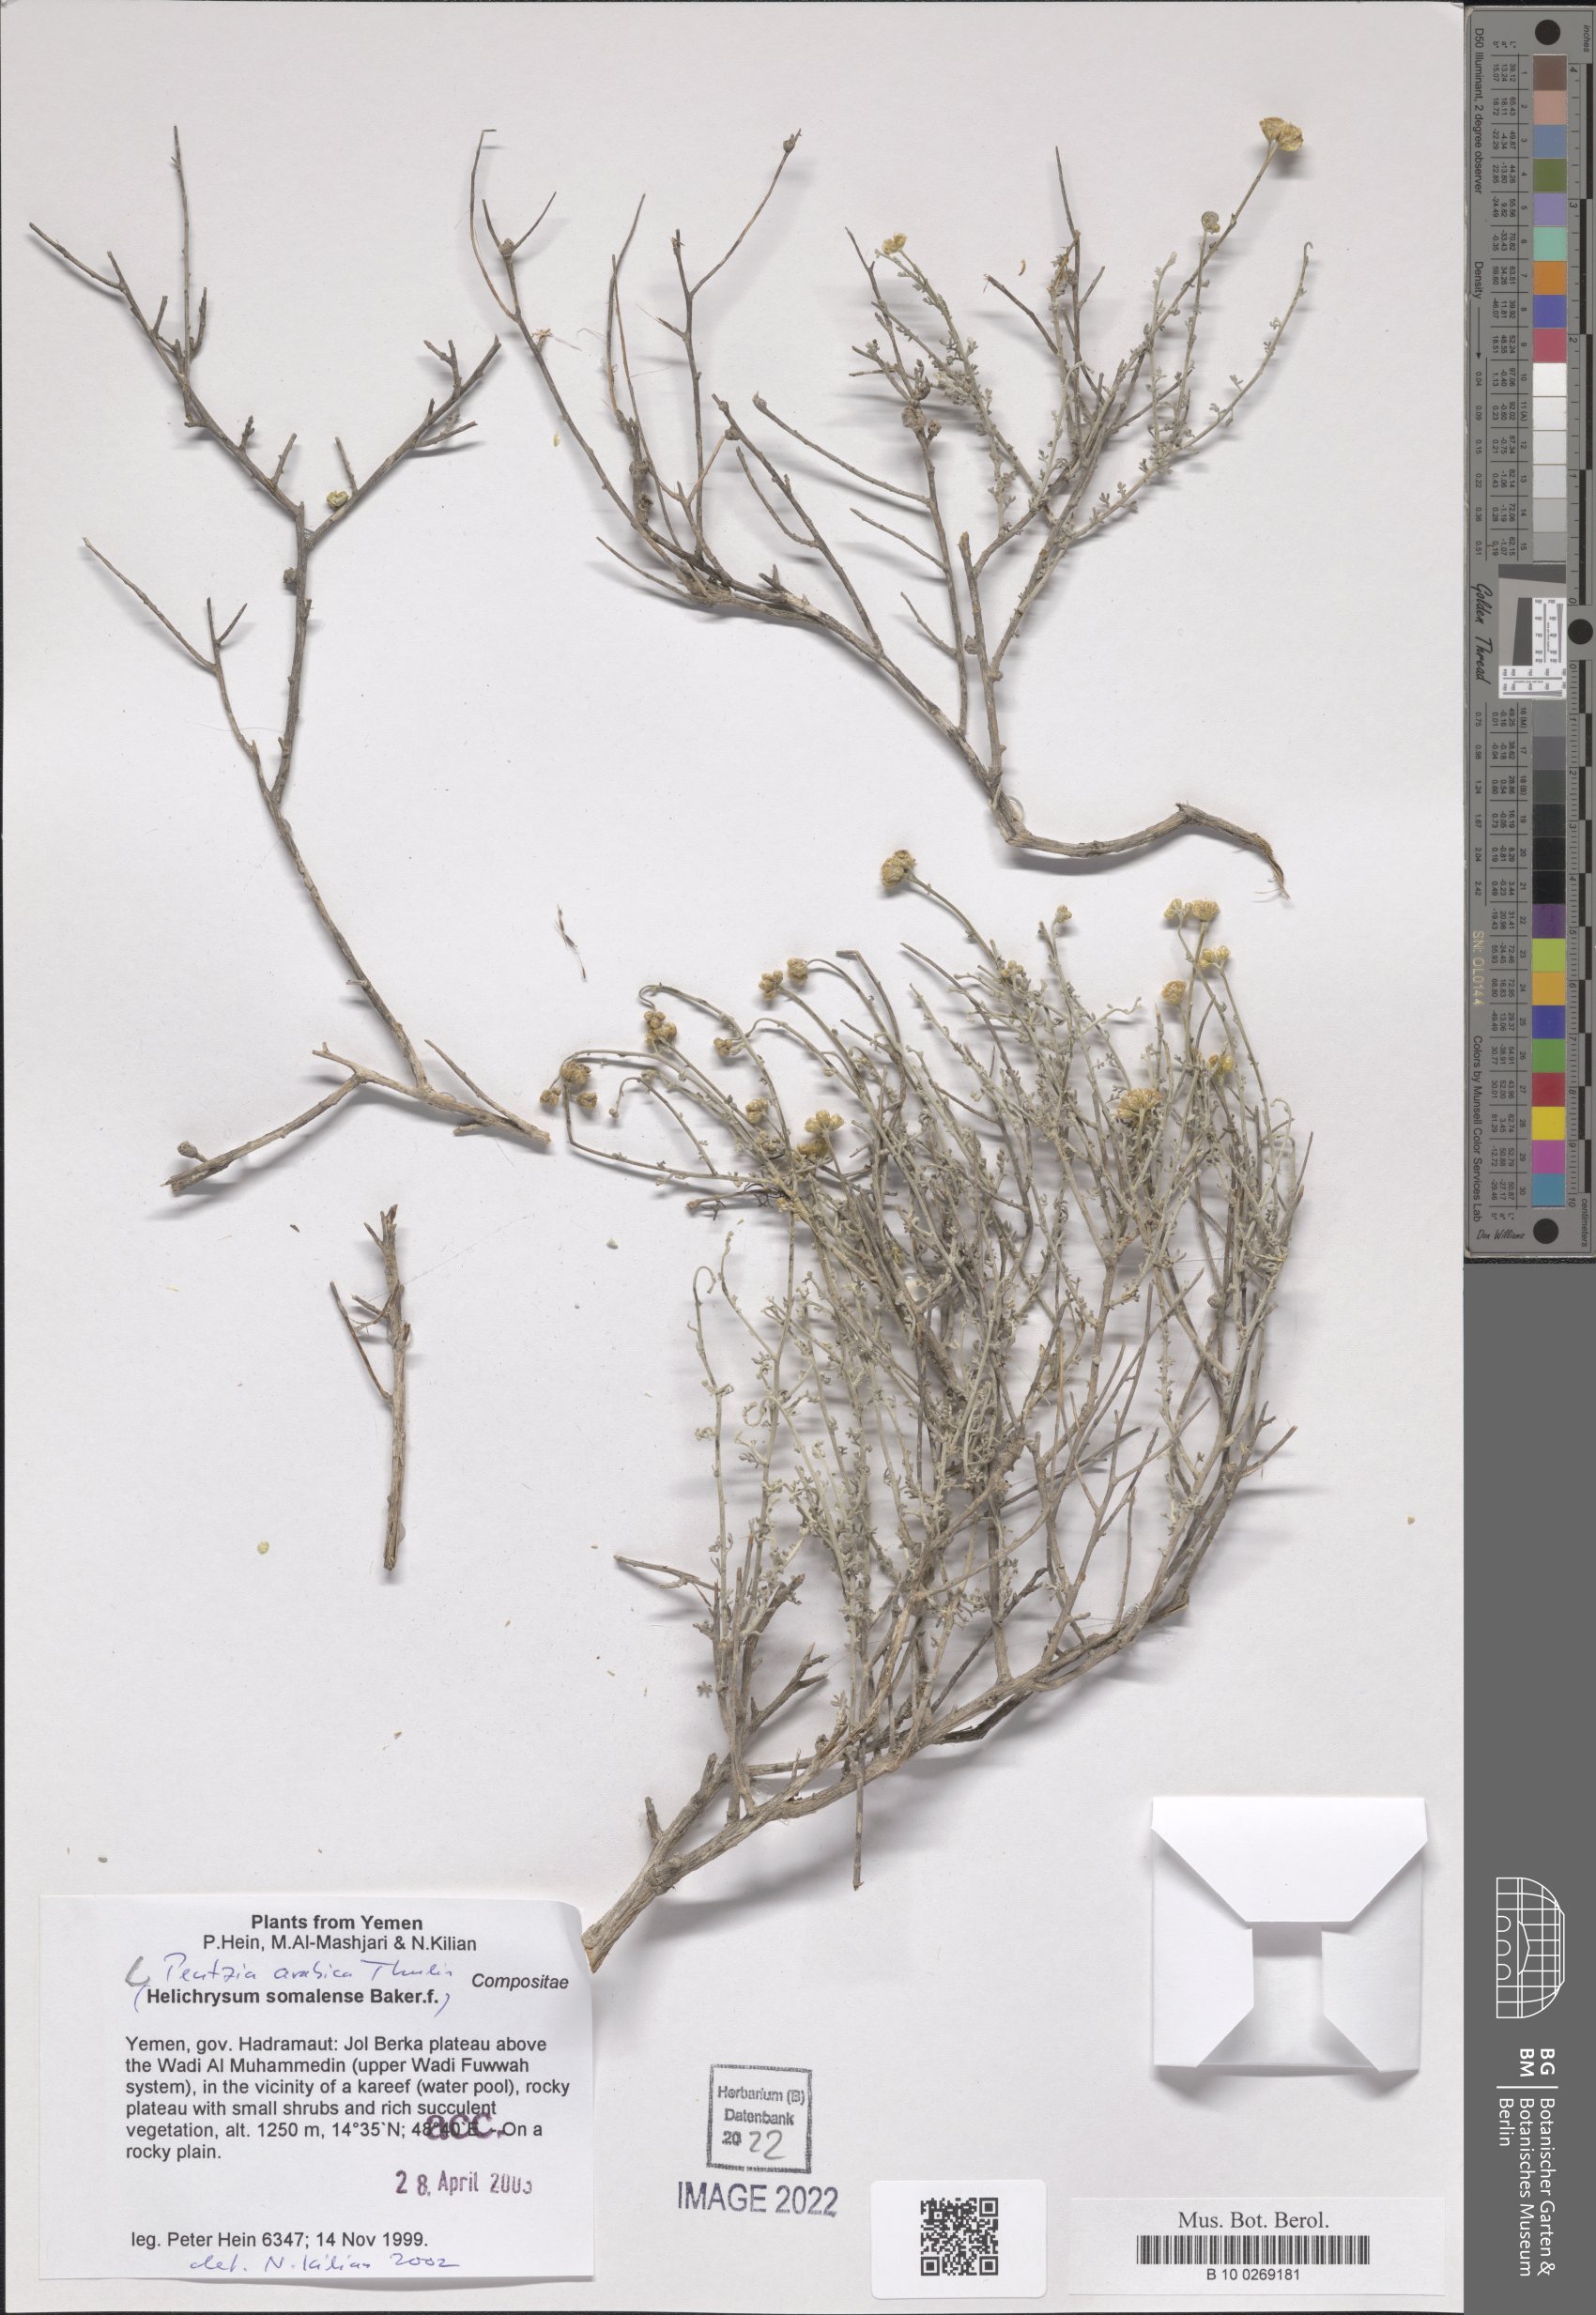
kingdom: Plantae
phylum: Tracheophyta
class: Magnoliopsida
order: Asterales
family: Asteraceae
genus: Pentzia
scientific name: Pentzia arabica
